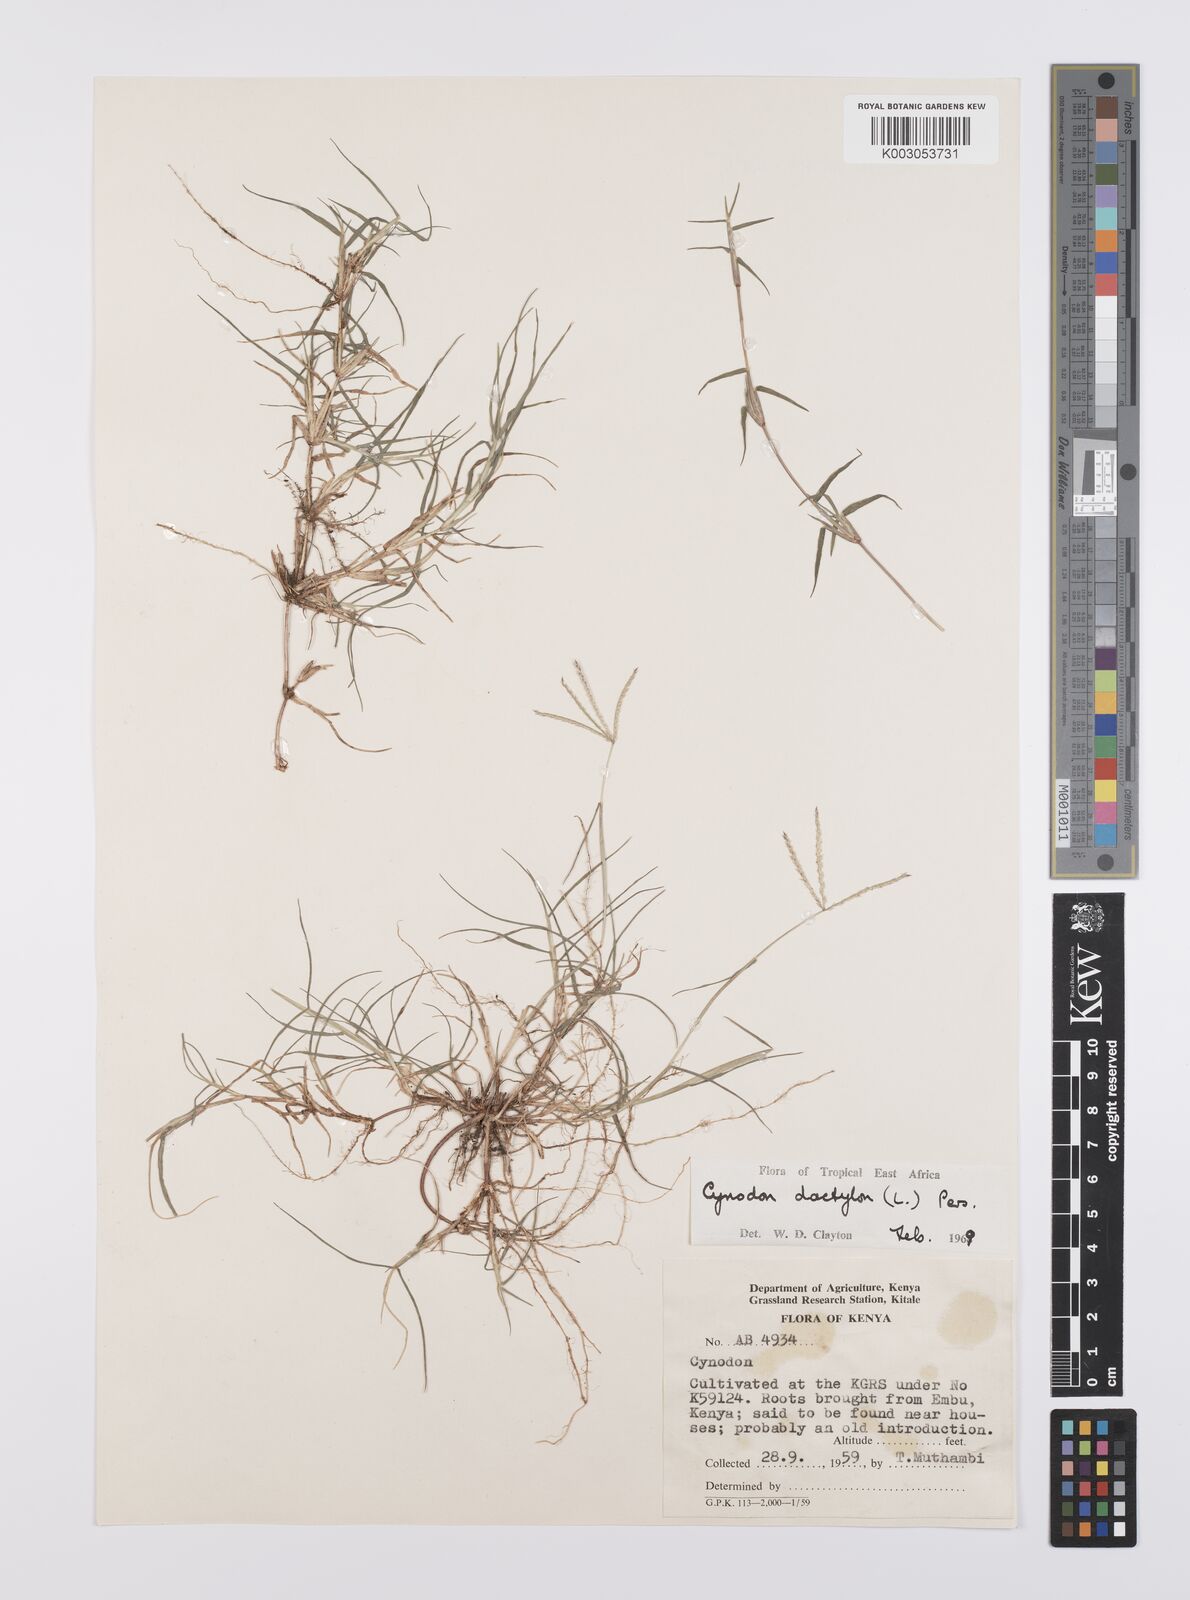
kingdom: Plantae
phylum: Tracheophyta
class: Liliopsida
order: Poales
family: Poaceae
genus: Cynodon
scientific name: Cynodon dactylon
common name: Bermuda grass
